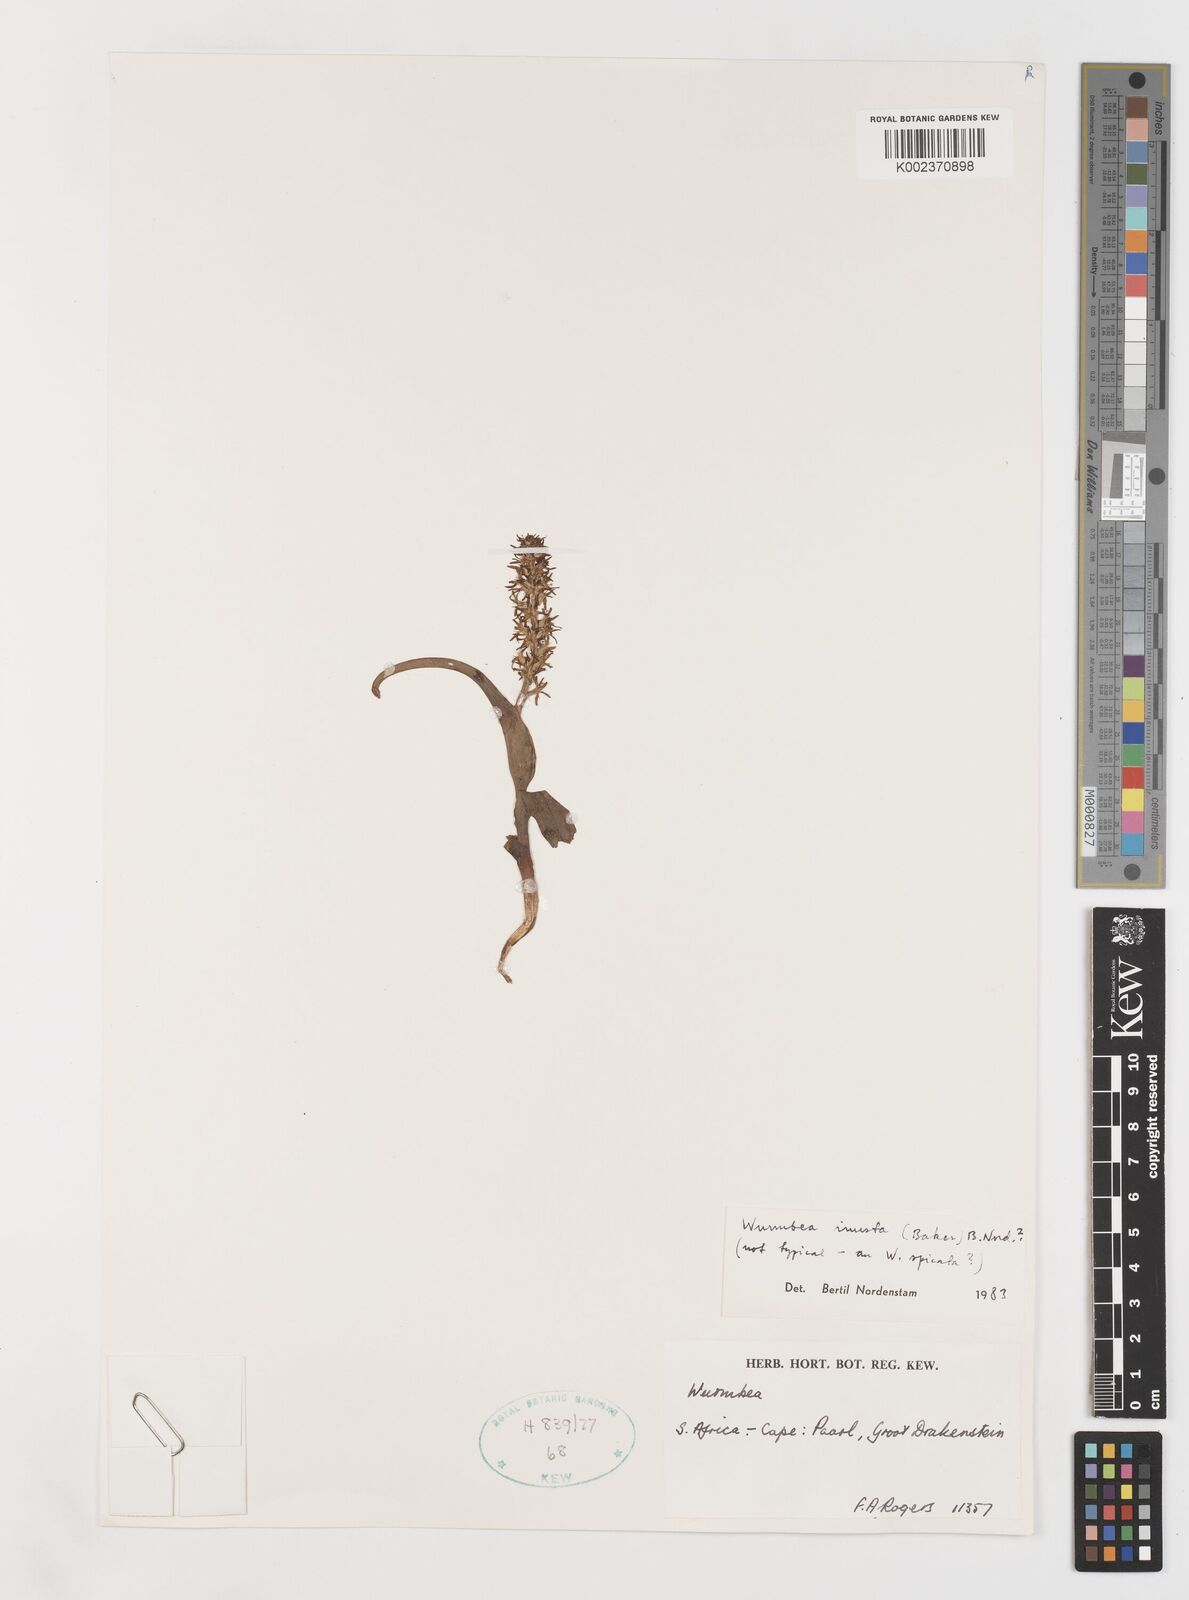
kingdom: Plantae
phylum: Tracheophyta
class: Liliopsida
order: Liliales
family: Colchicaceae
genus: Wurmbea
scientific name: Wurmbea inusta
